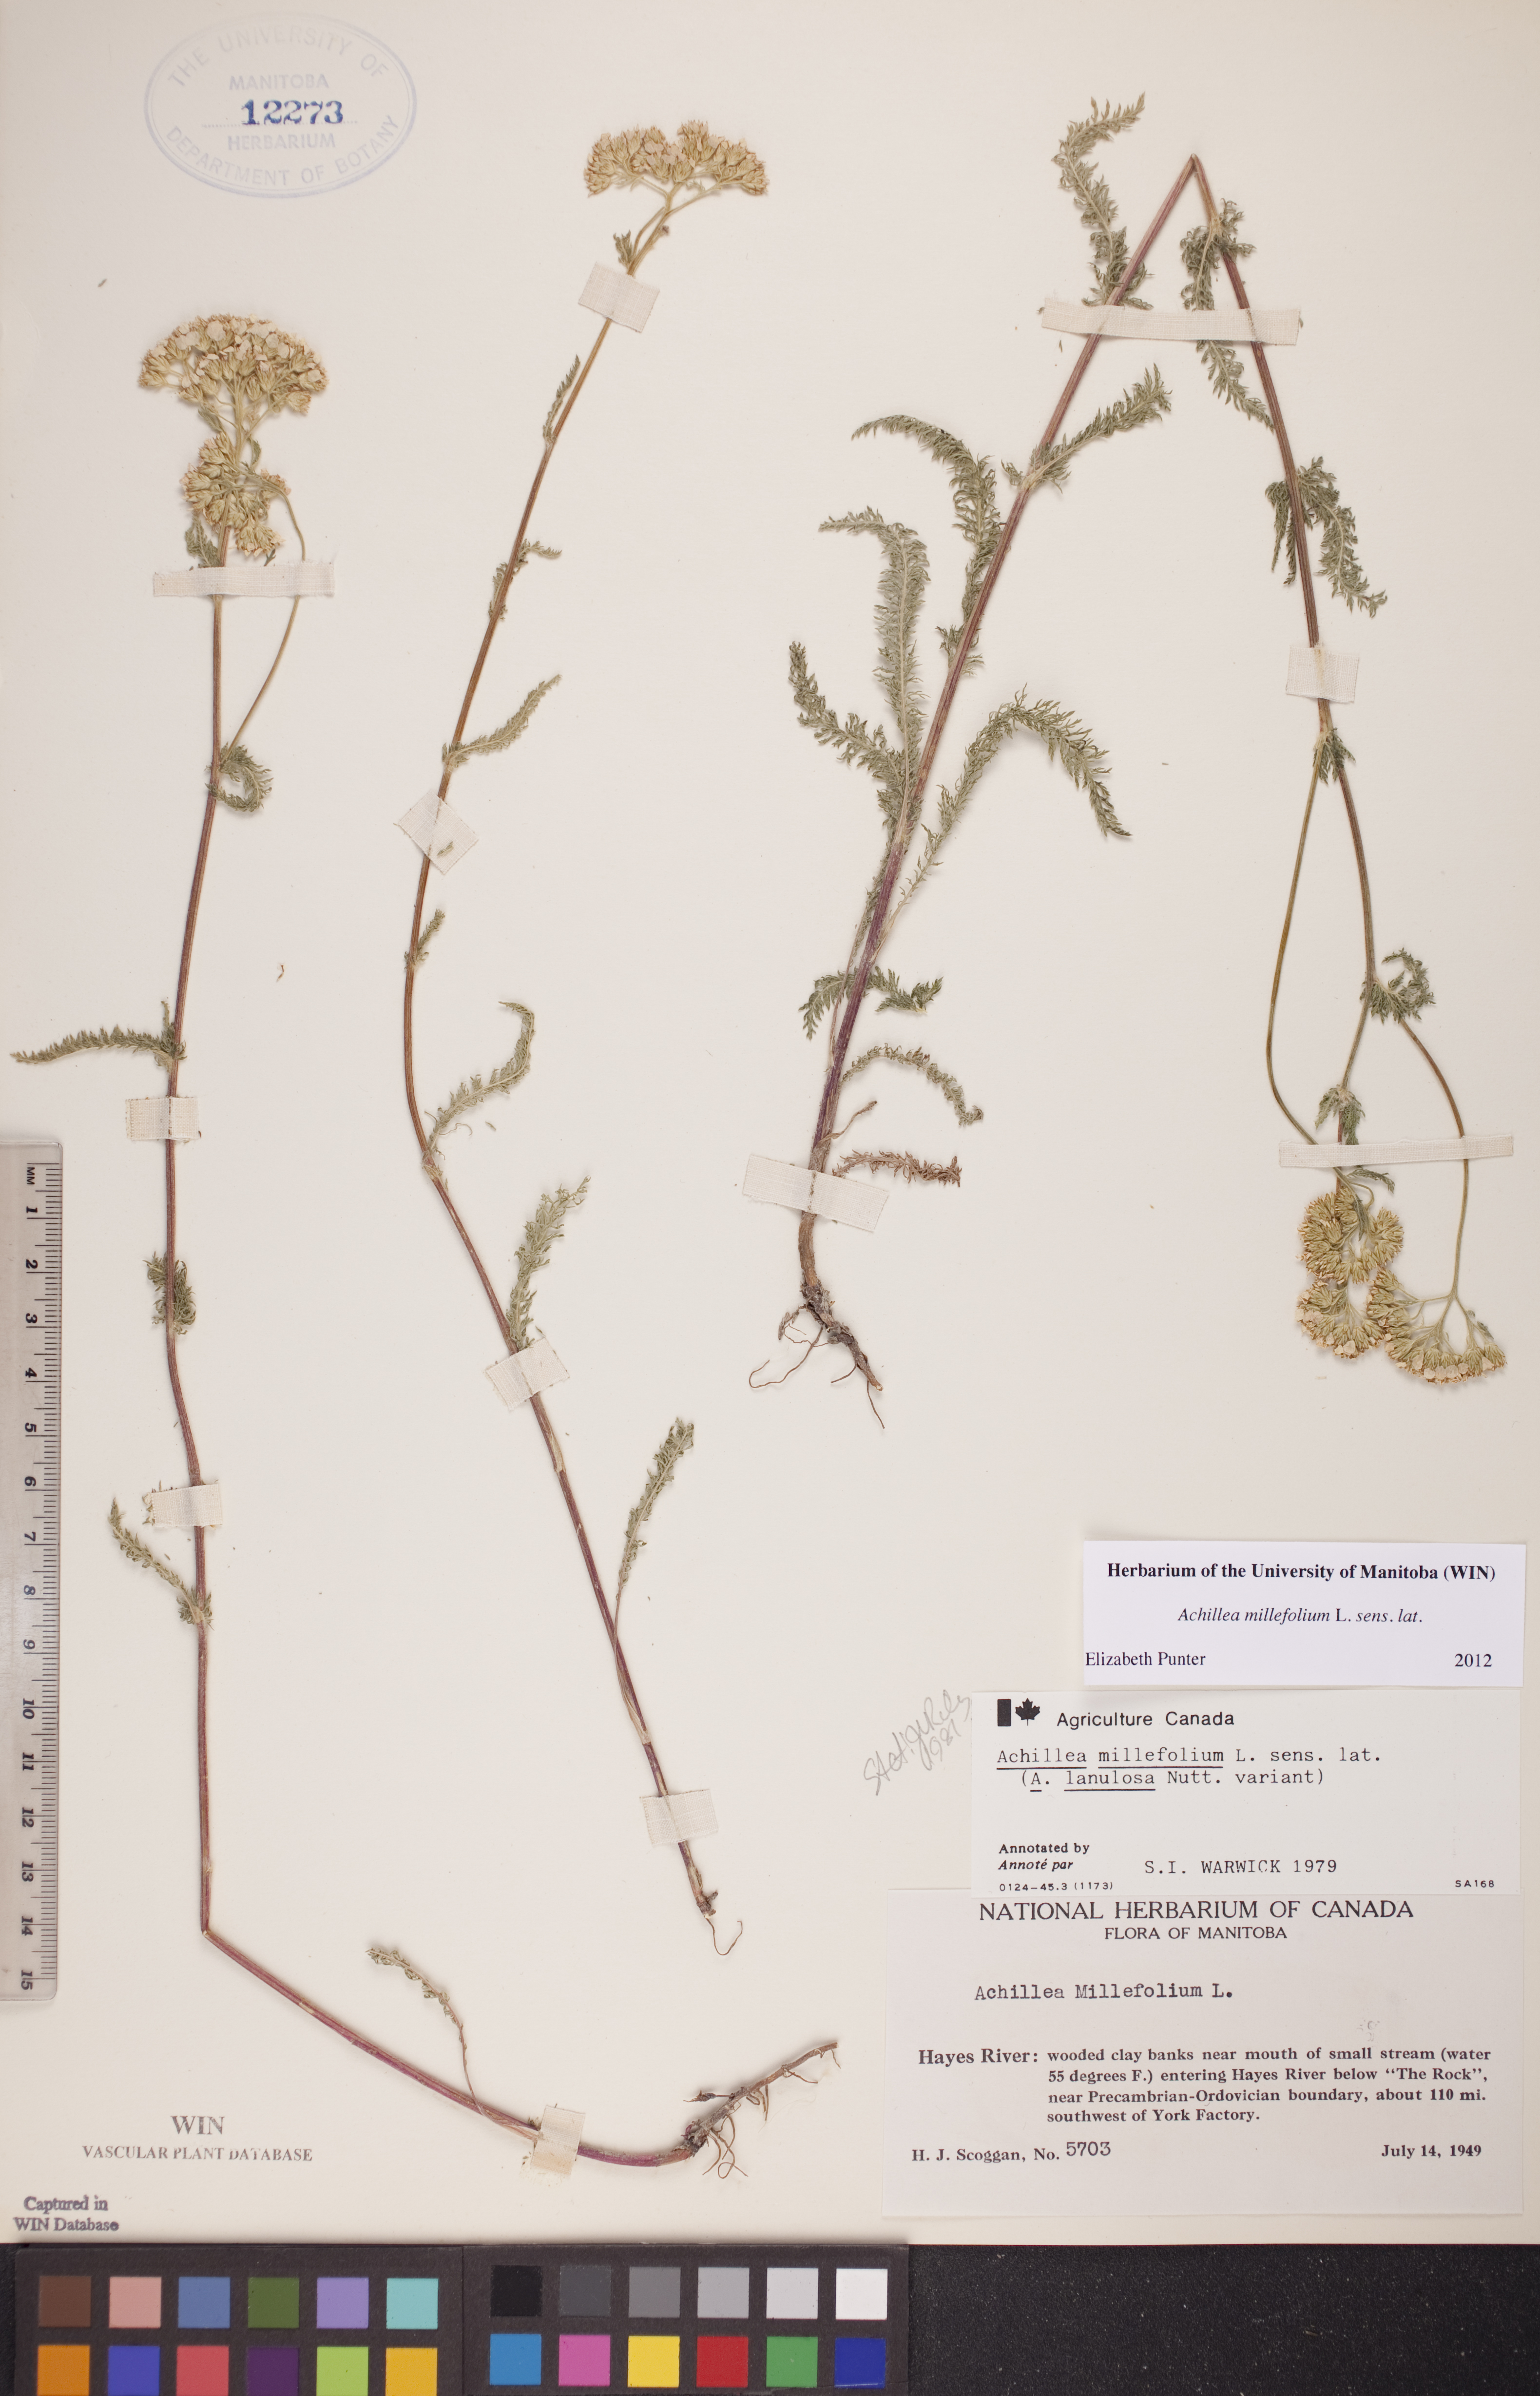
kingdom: Plantae
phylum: Tracheophyta
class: Magnoliopsida
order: Asterales
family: Asteraceae
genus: Achillea
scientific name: Achillea millefolium
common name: Yarrow
